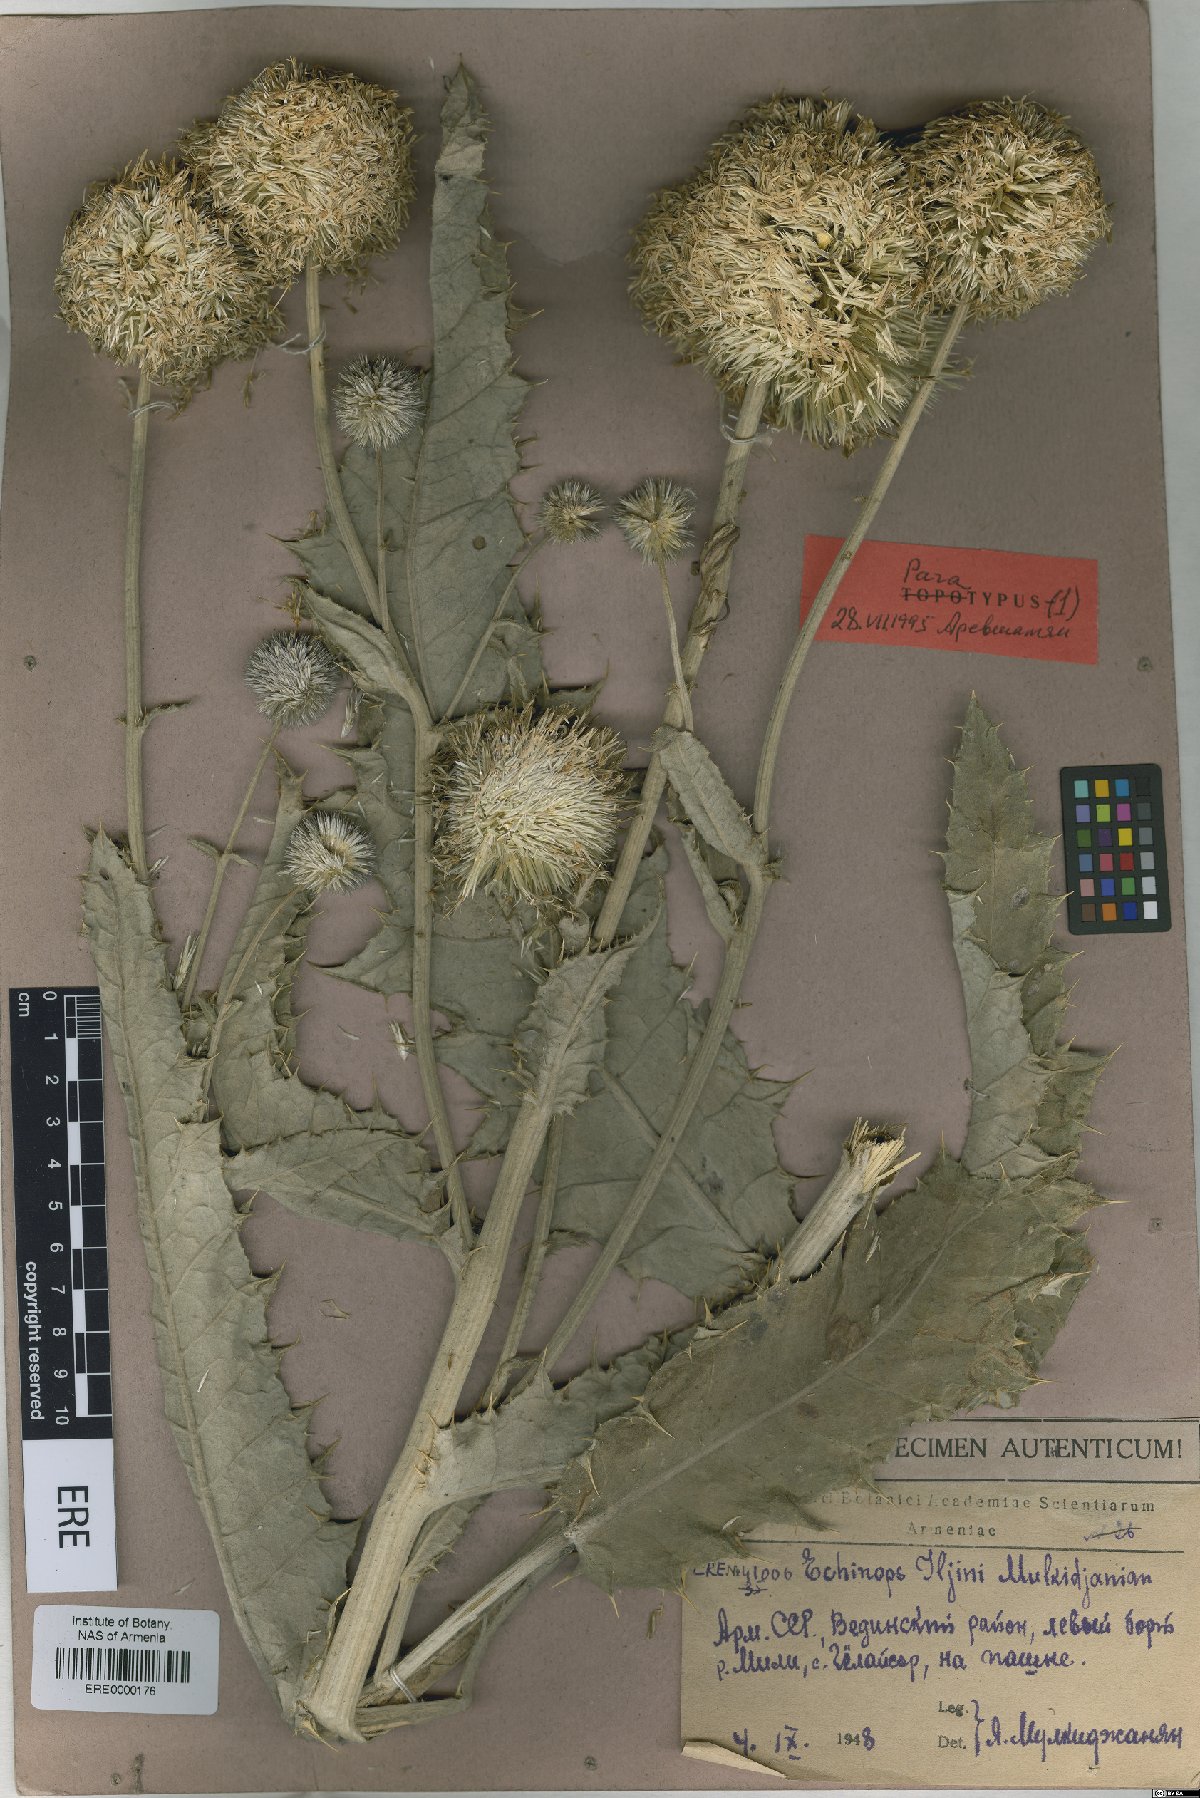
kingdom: Plantae
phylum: Tracheophyta
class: Magnoliopsida
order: Asterales
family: Asteraceae
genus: Echinops
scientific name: Echinops transcaucasicus
